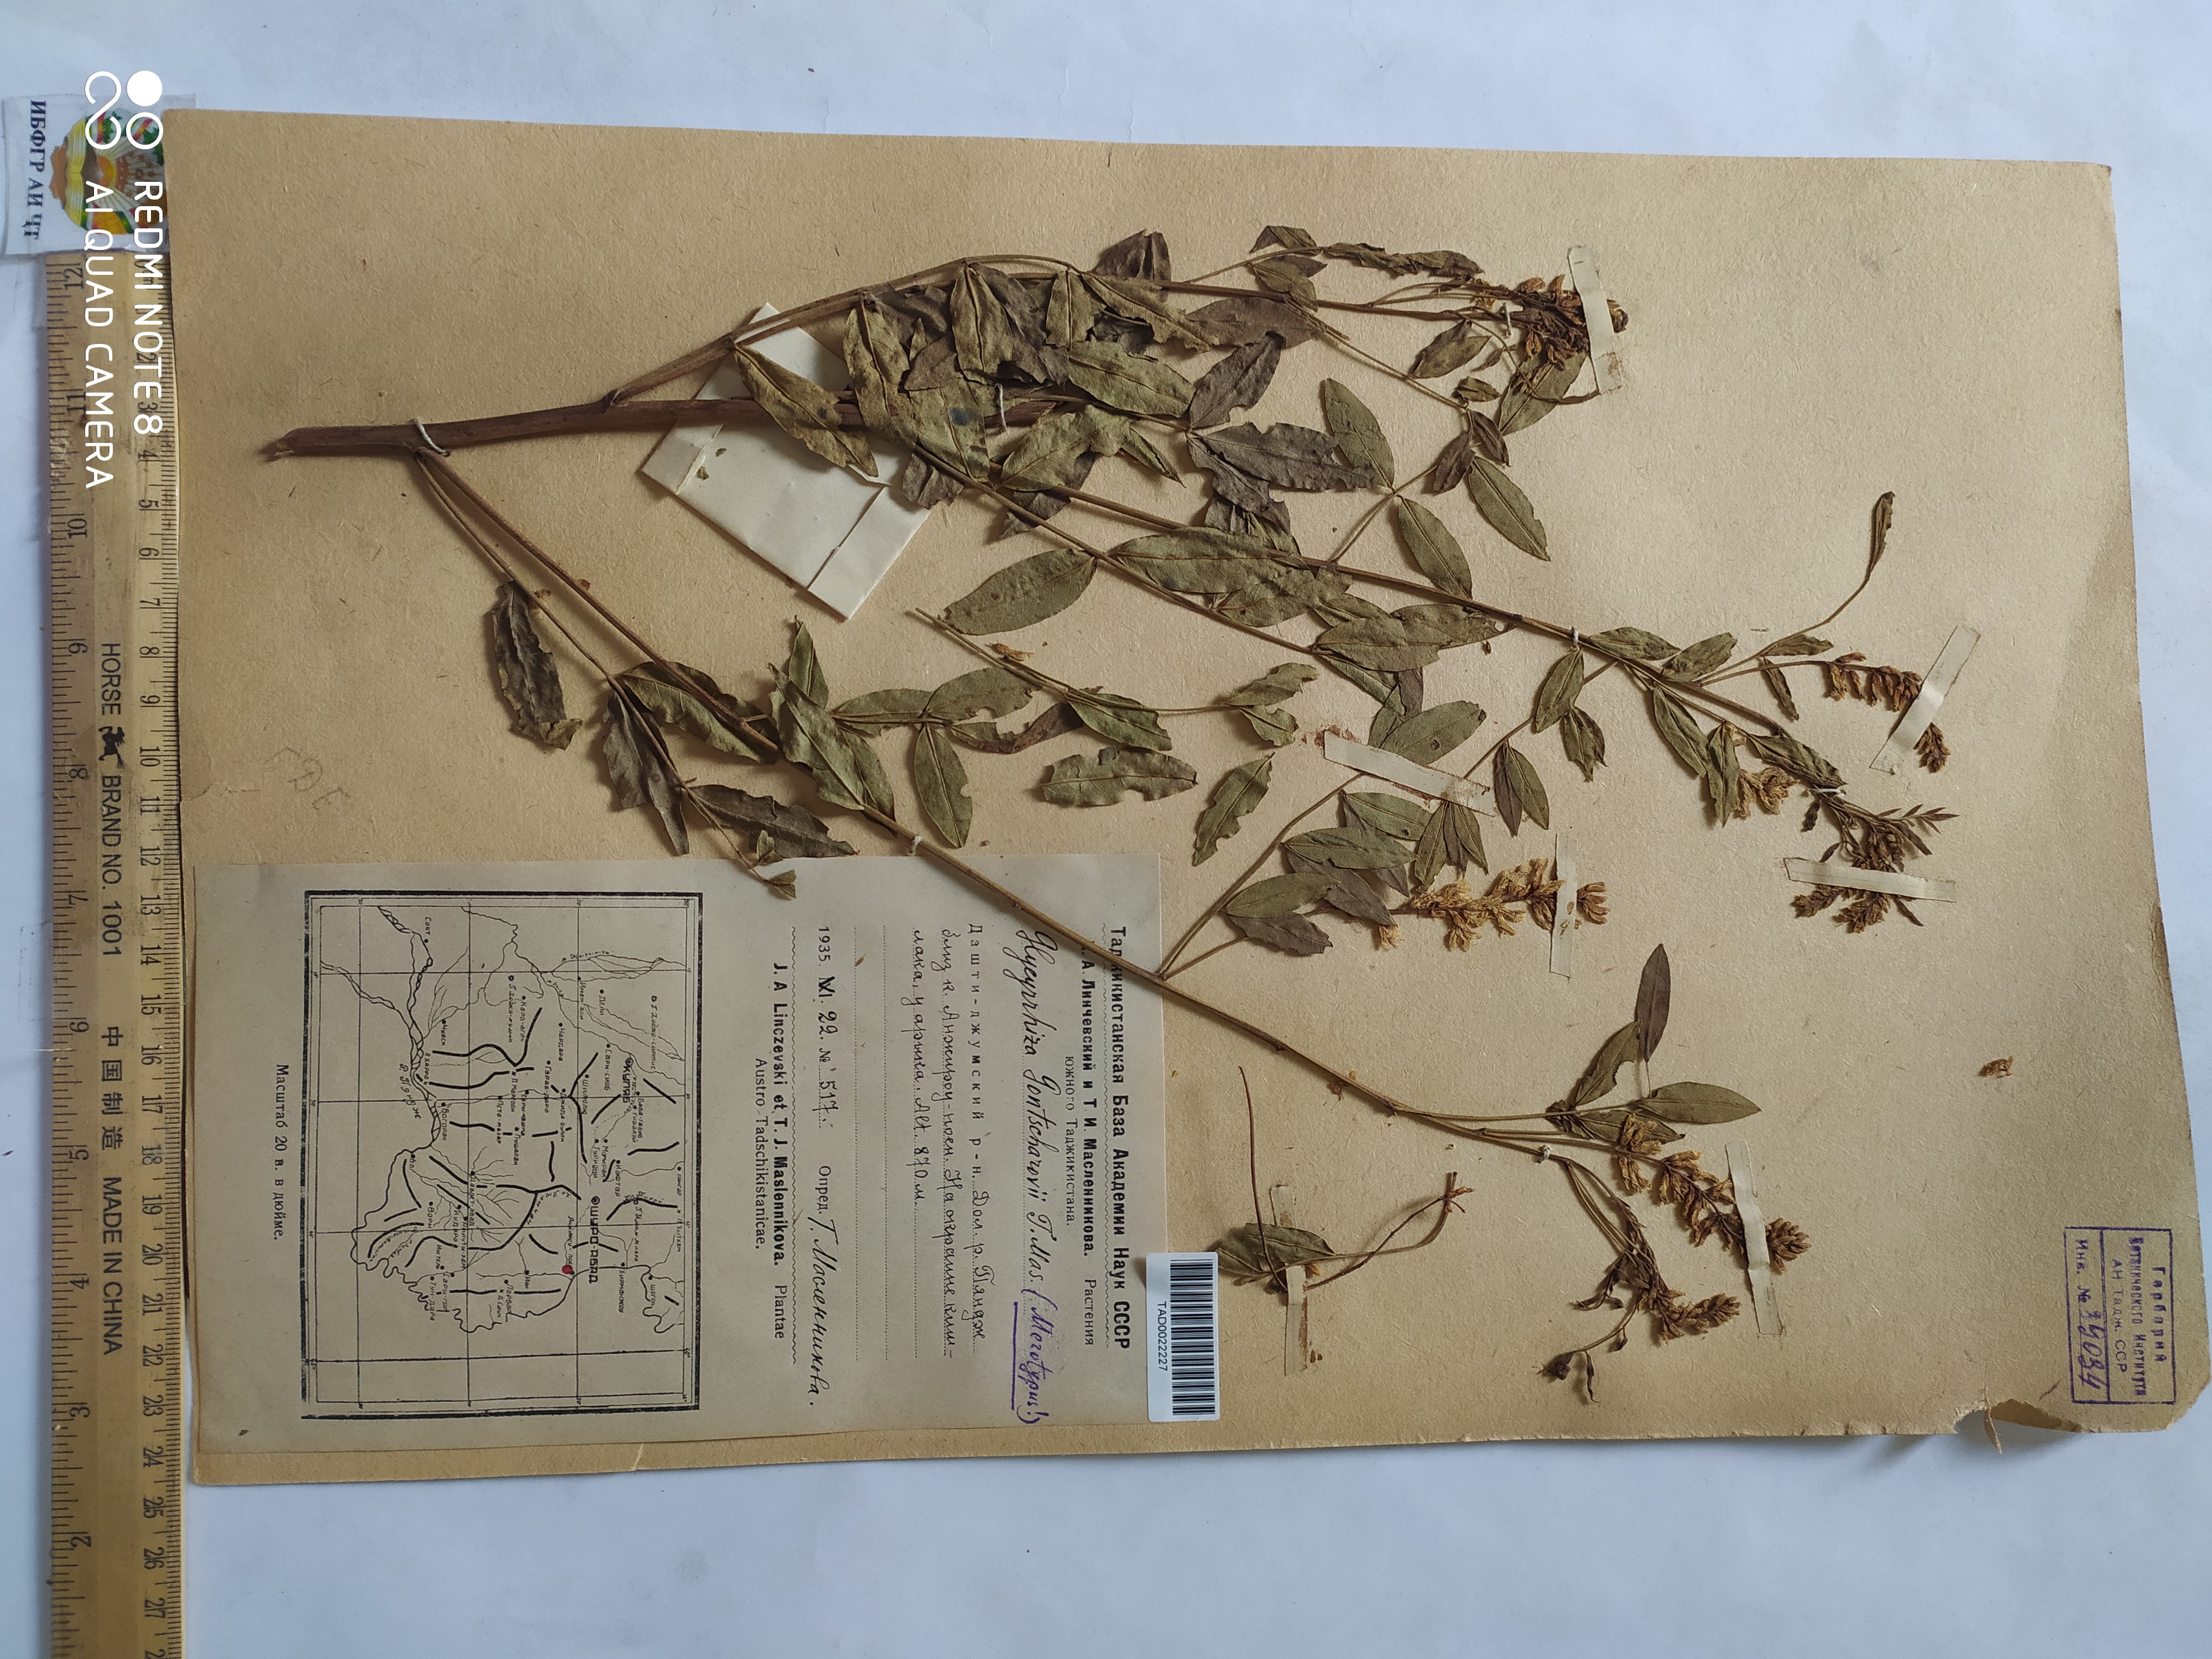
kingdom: Plantae
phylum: Tracheophyta
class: Magnoliopsida
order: Fabales
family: Fabaceae
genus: Glycyrrhiza
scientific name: Glycyrrhiza gontscharovii
